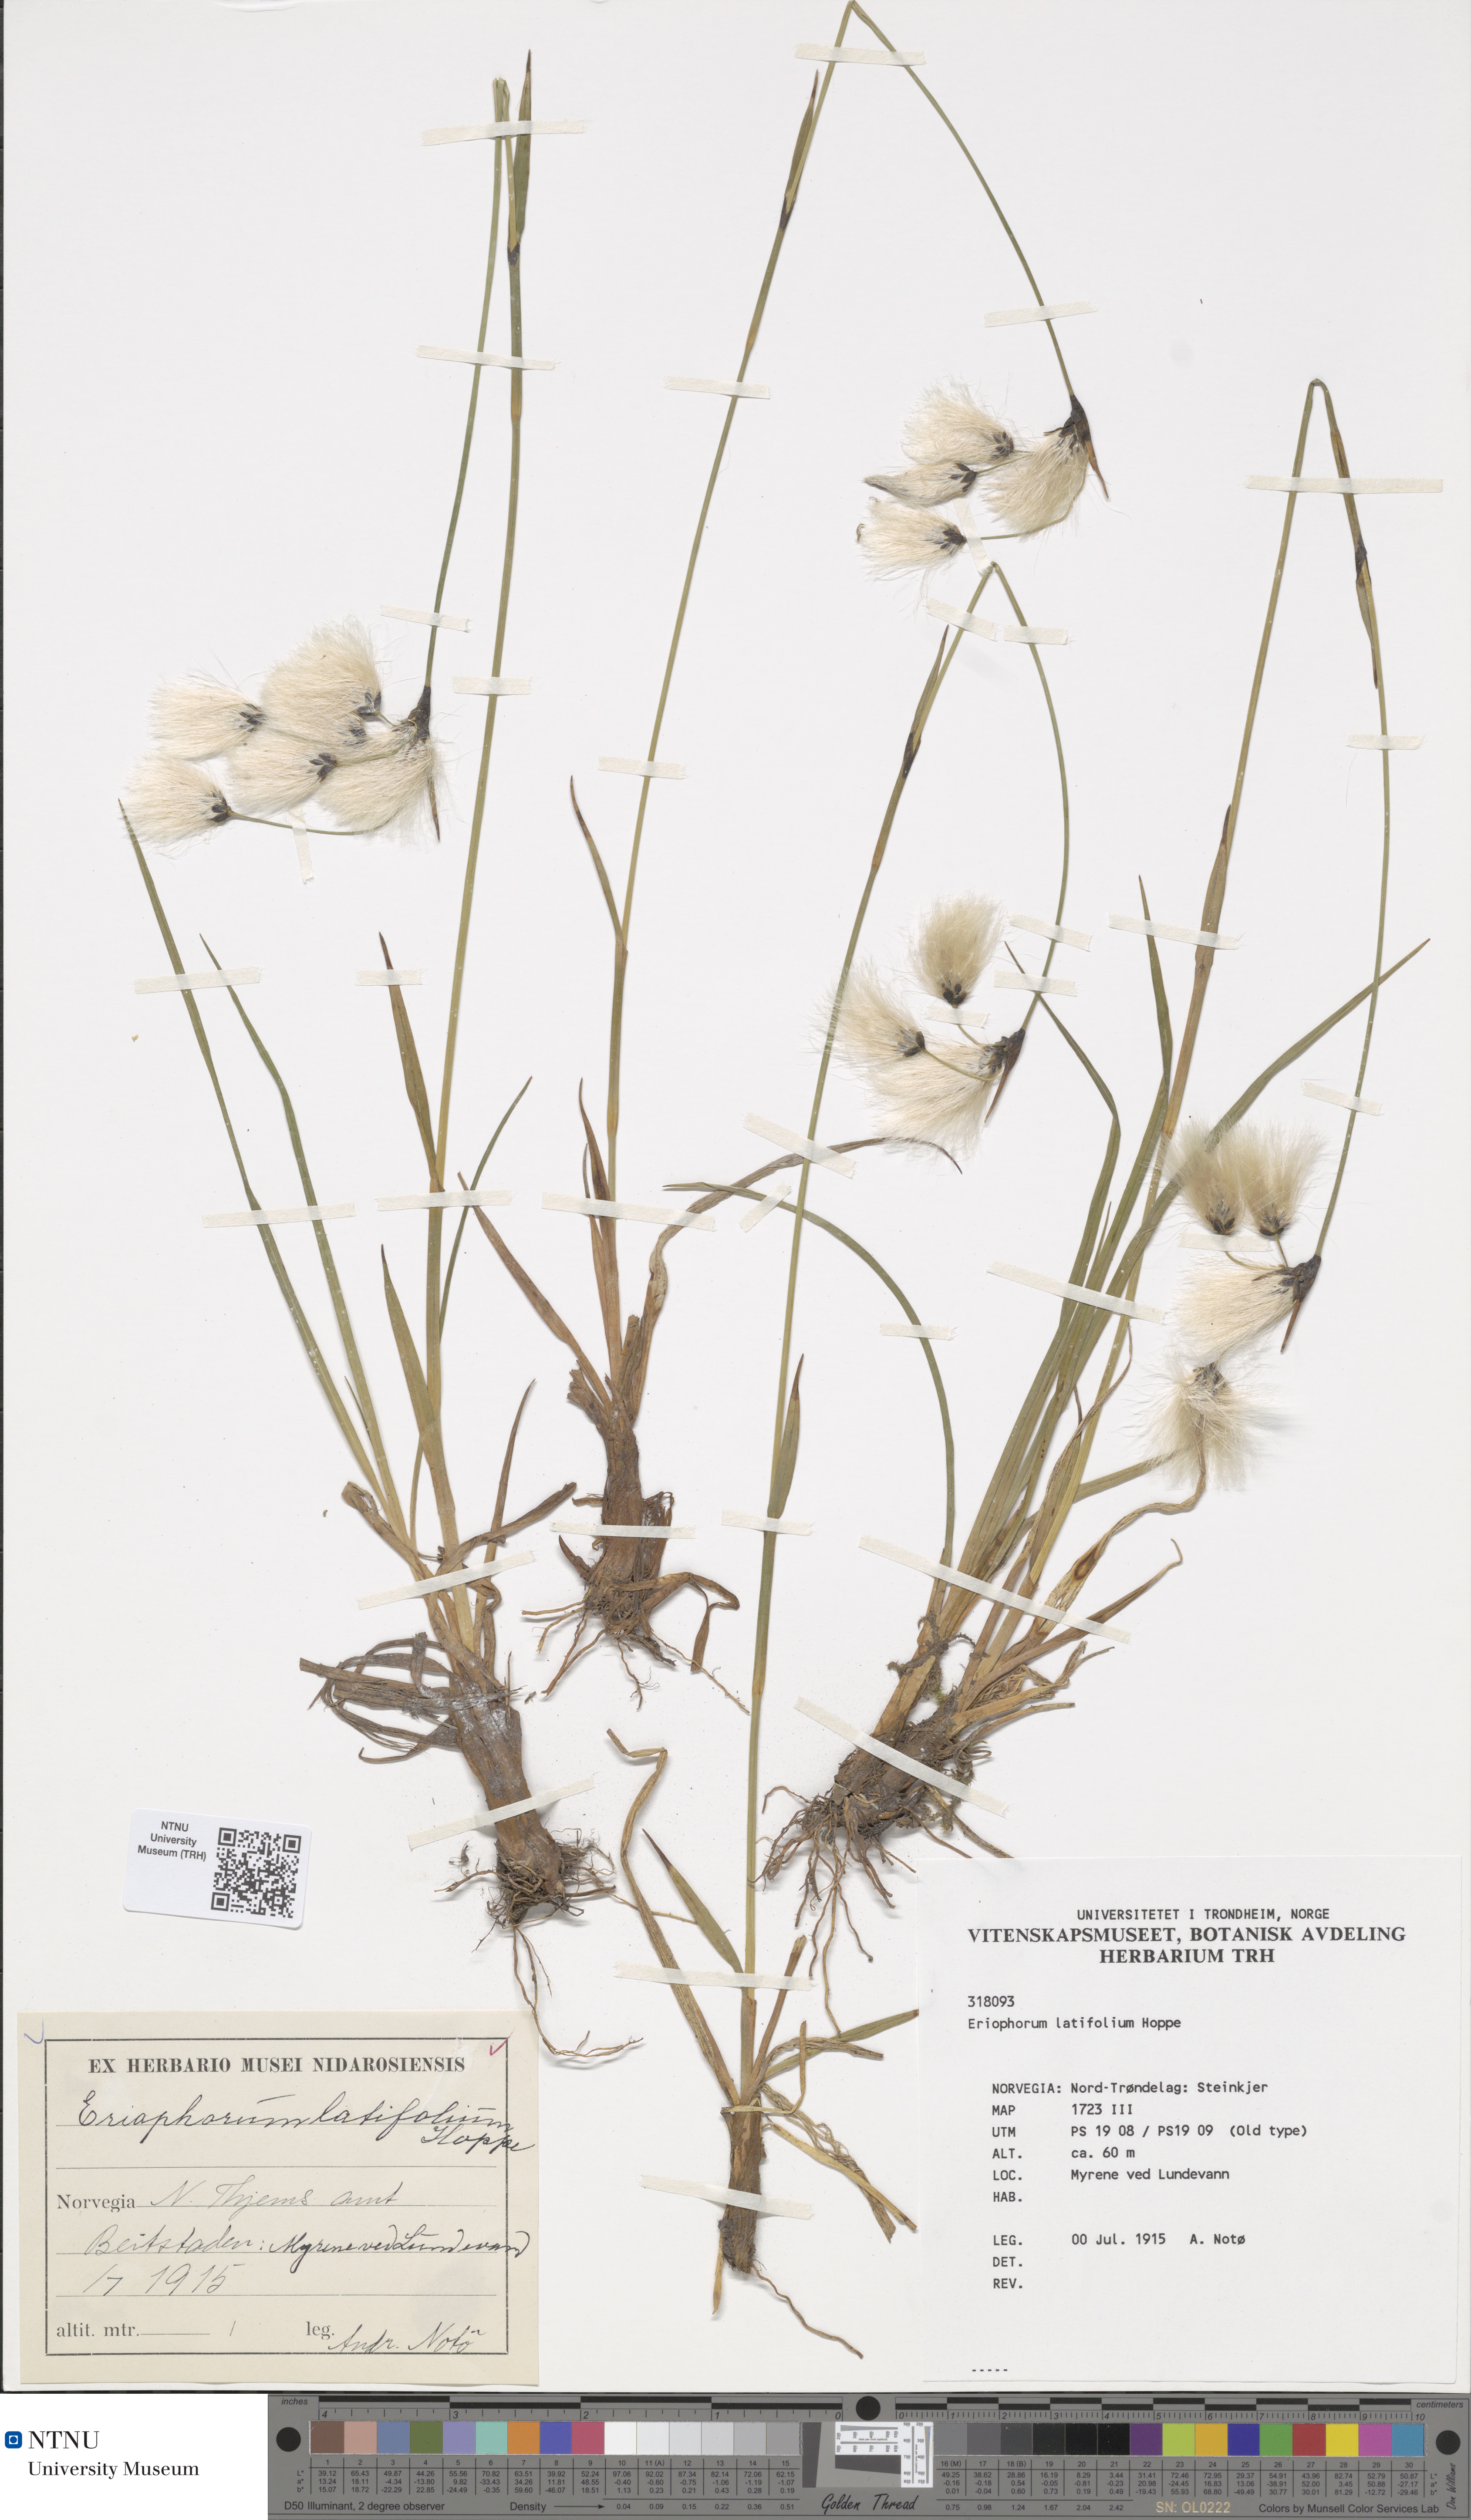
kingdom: Plantae
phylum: Tracheophyta
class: Liliopsida
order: Poales
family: Cyperaceae
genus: Eriophorum
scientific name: Eriophorum latifolium
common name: Broad-leaved cottongrass
